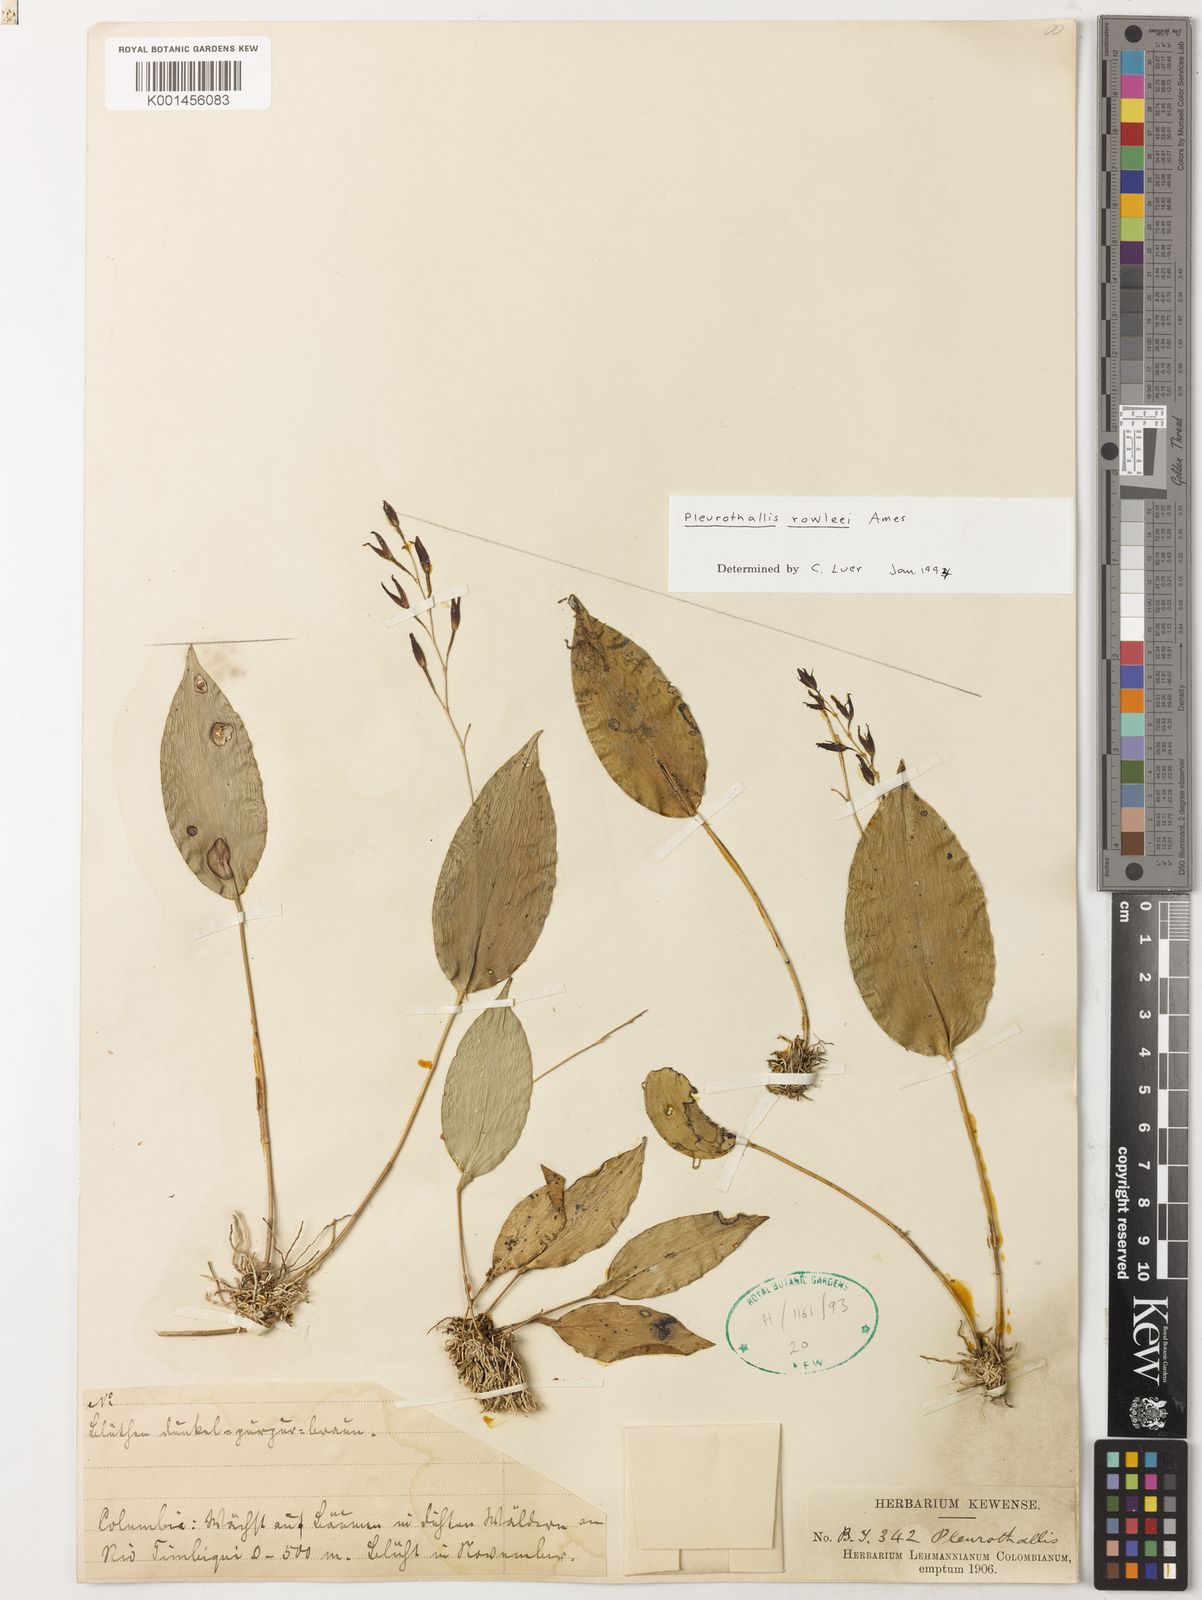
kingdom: Plantae
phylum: Tracheophyta
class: Liliopsida
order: Asparagales
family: Orchidaceae
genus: Pleurothallis
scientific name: Pleurothallis rowleei
